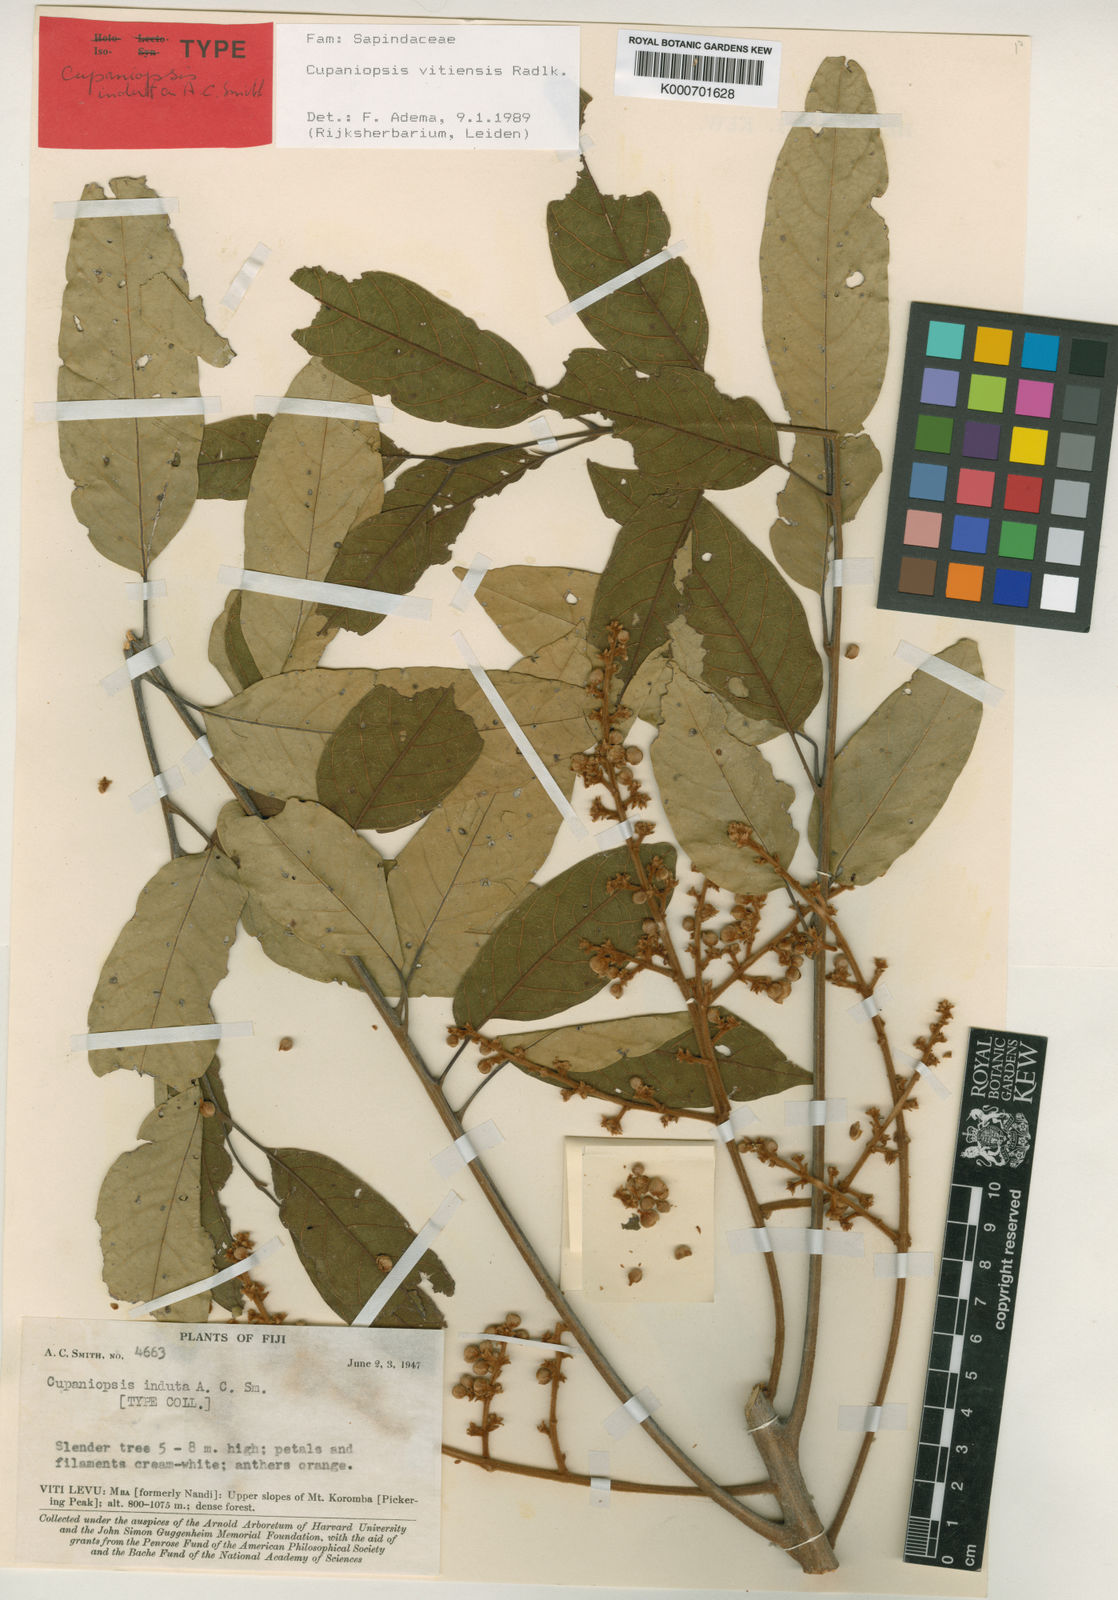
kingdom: Plantae
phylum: Tracheophyta
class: Magnoliopsida
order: Sapindales
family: Sapindaceae
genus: Cupaniopsis
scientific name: Cupaniopsis vitiensis
